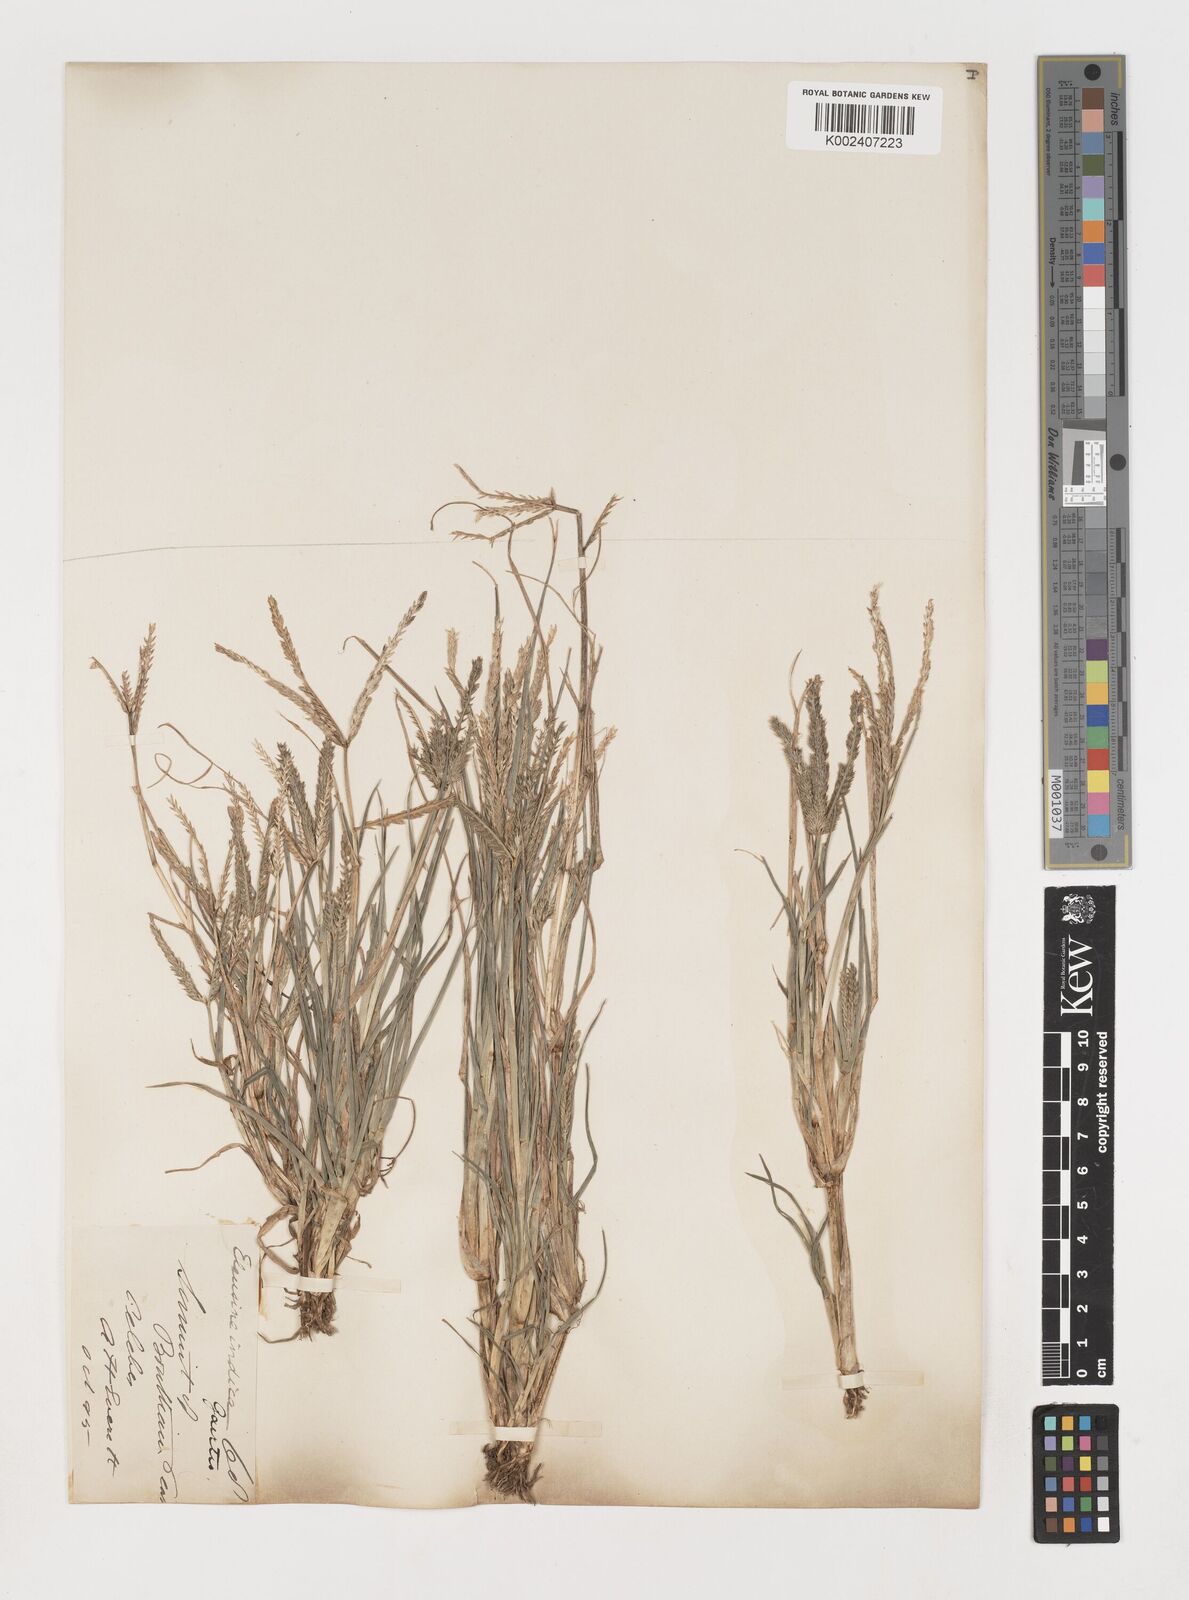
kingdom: Plantae
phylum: Tracheophyta
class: Liliopsida
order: Poales
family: Poaceae
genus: Eleusine
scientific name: Eleusine indica
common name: Yard-grass
